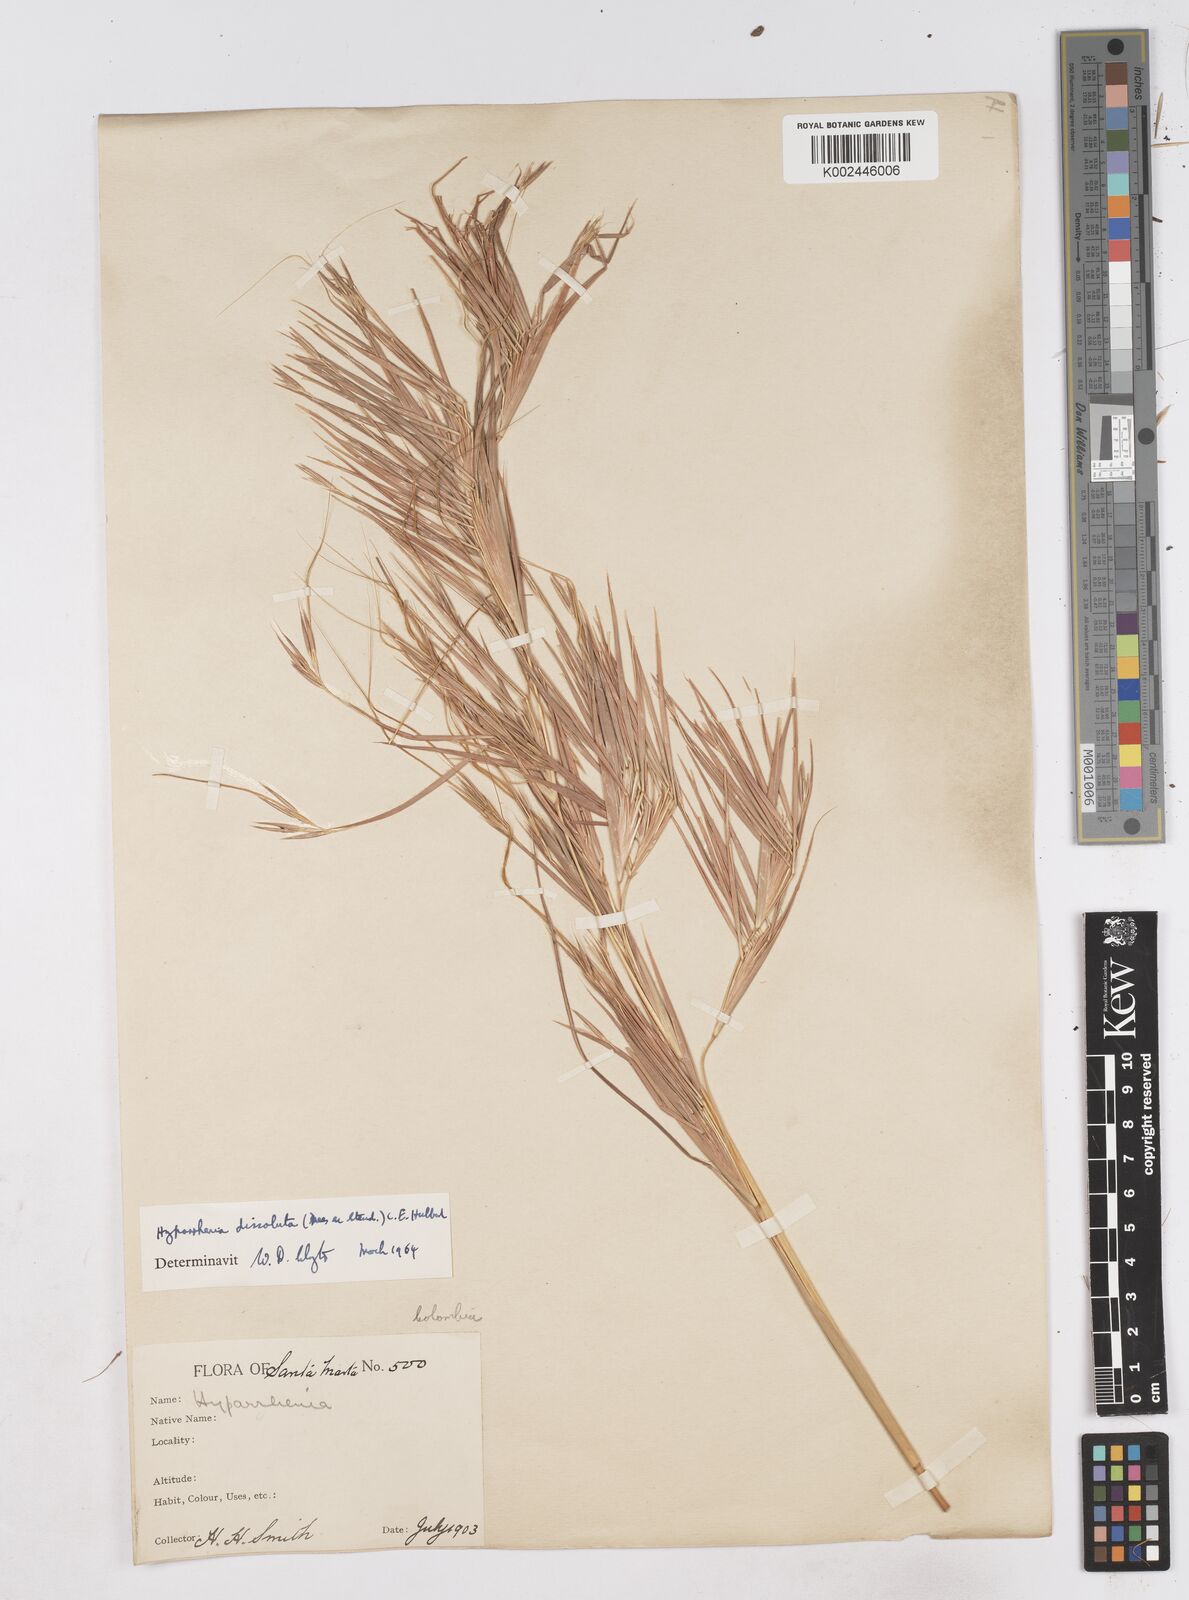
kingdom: Plantae
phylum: Tracheophyta
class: Liliopsida
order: Poales
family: Poaceae
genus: Hyperthelia
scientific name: Hyperthelia dissoluta
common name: Yellow thatching grass
